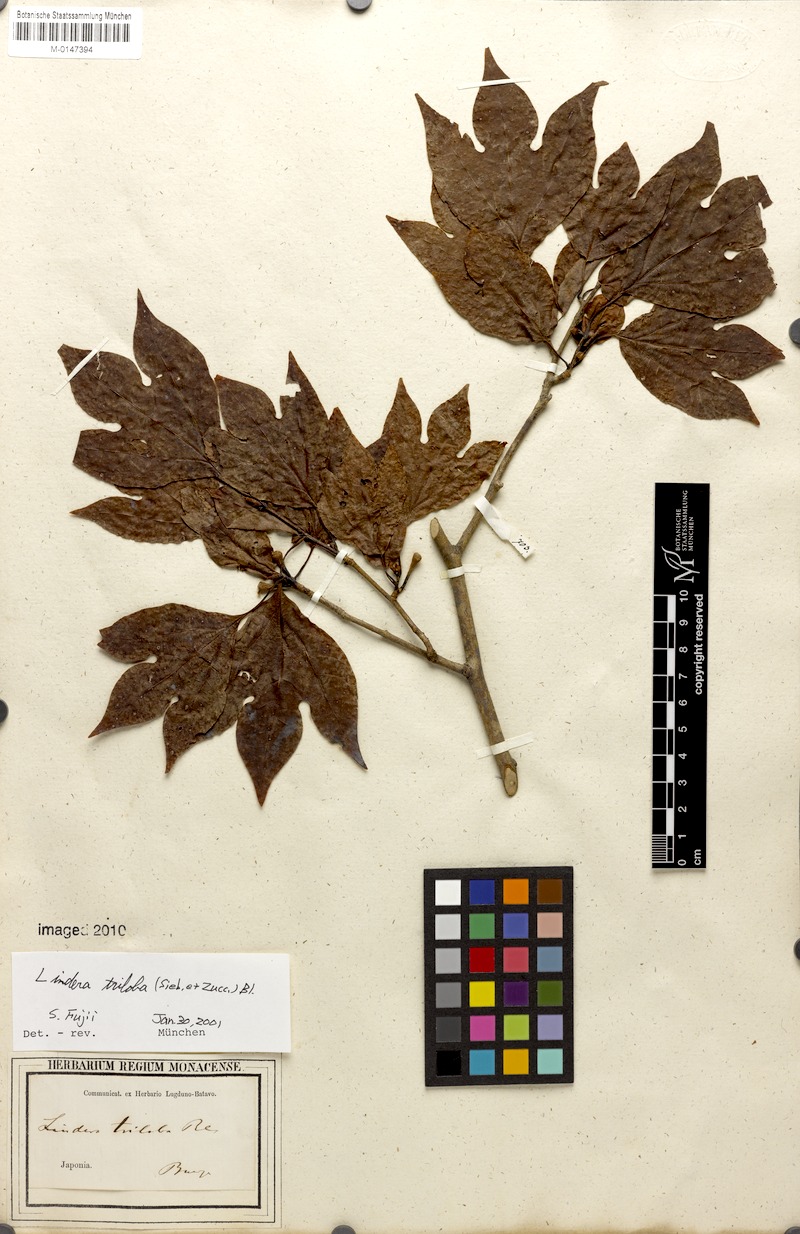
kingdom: Plantae
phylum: Tracheophyta
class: Magnoliopsida
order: Laurales
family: Lauraceae
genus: Lindera
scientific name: Lindera triloba
